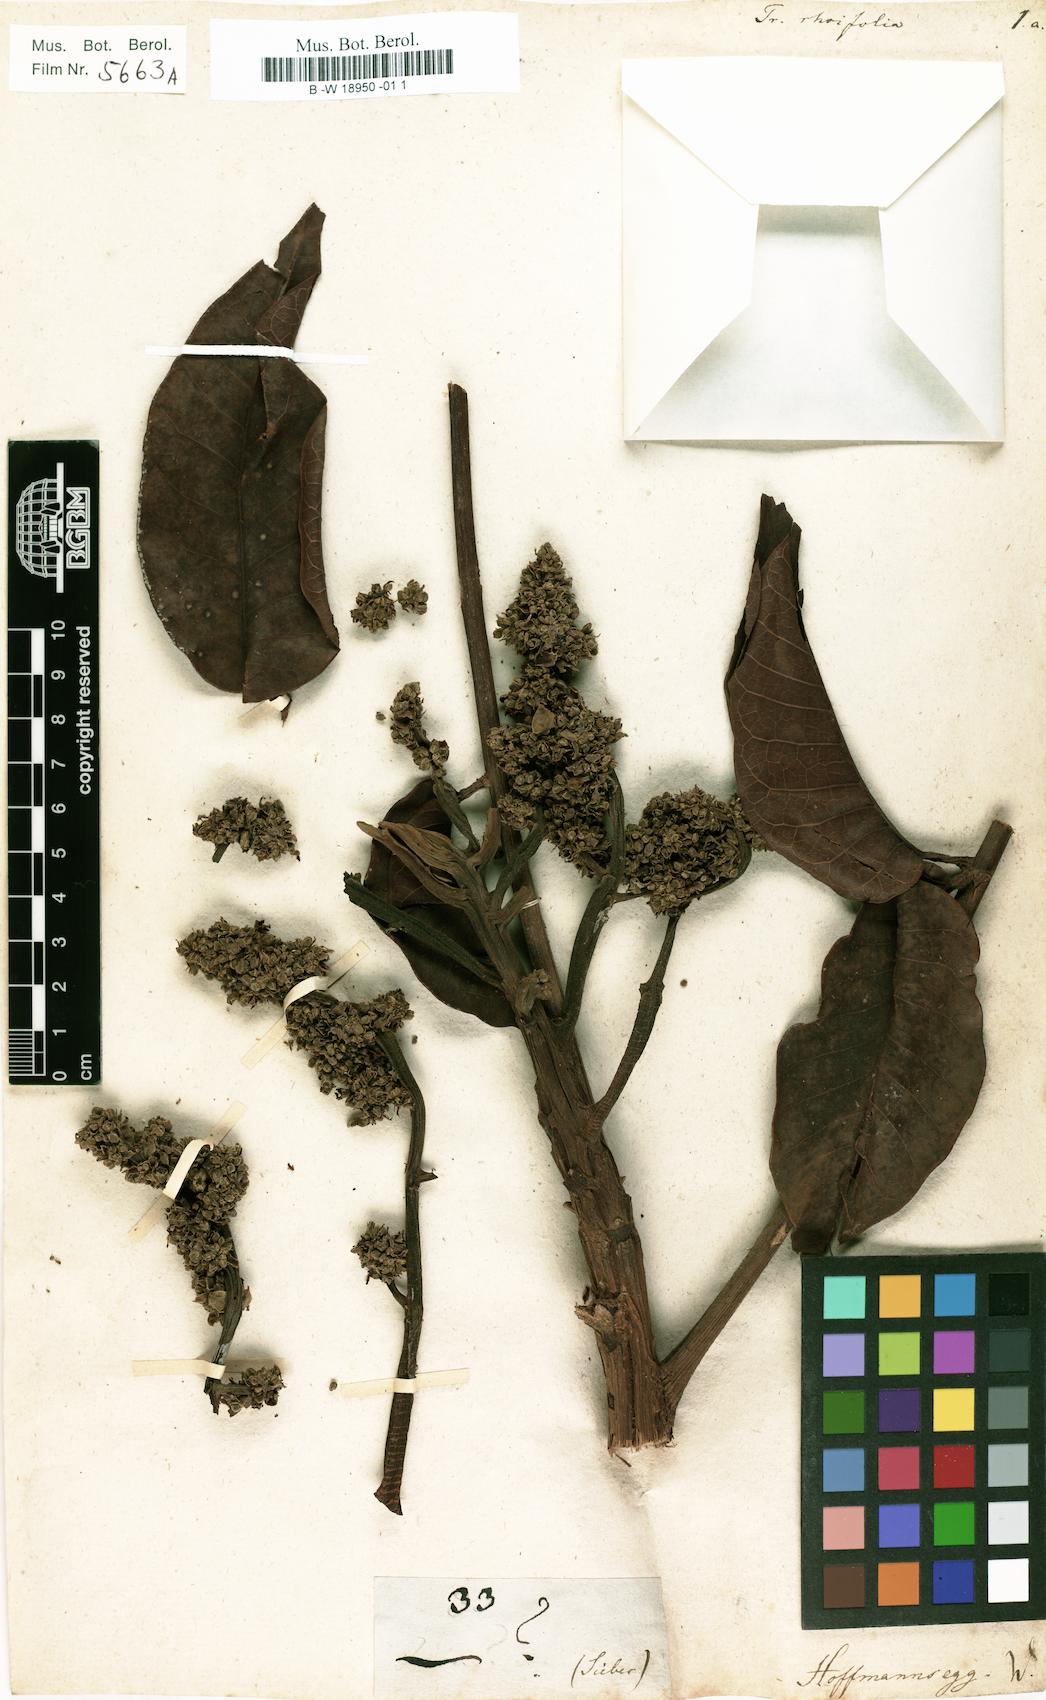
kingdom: Plantae
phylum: Tracheophyta
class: Magnoliopsida
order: Sapindales
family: Burseraceae
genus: Trattinnickia
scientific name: Trattinnickia rhoifolia
